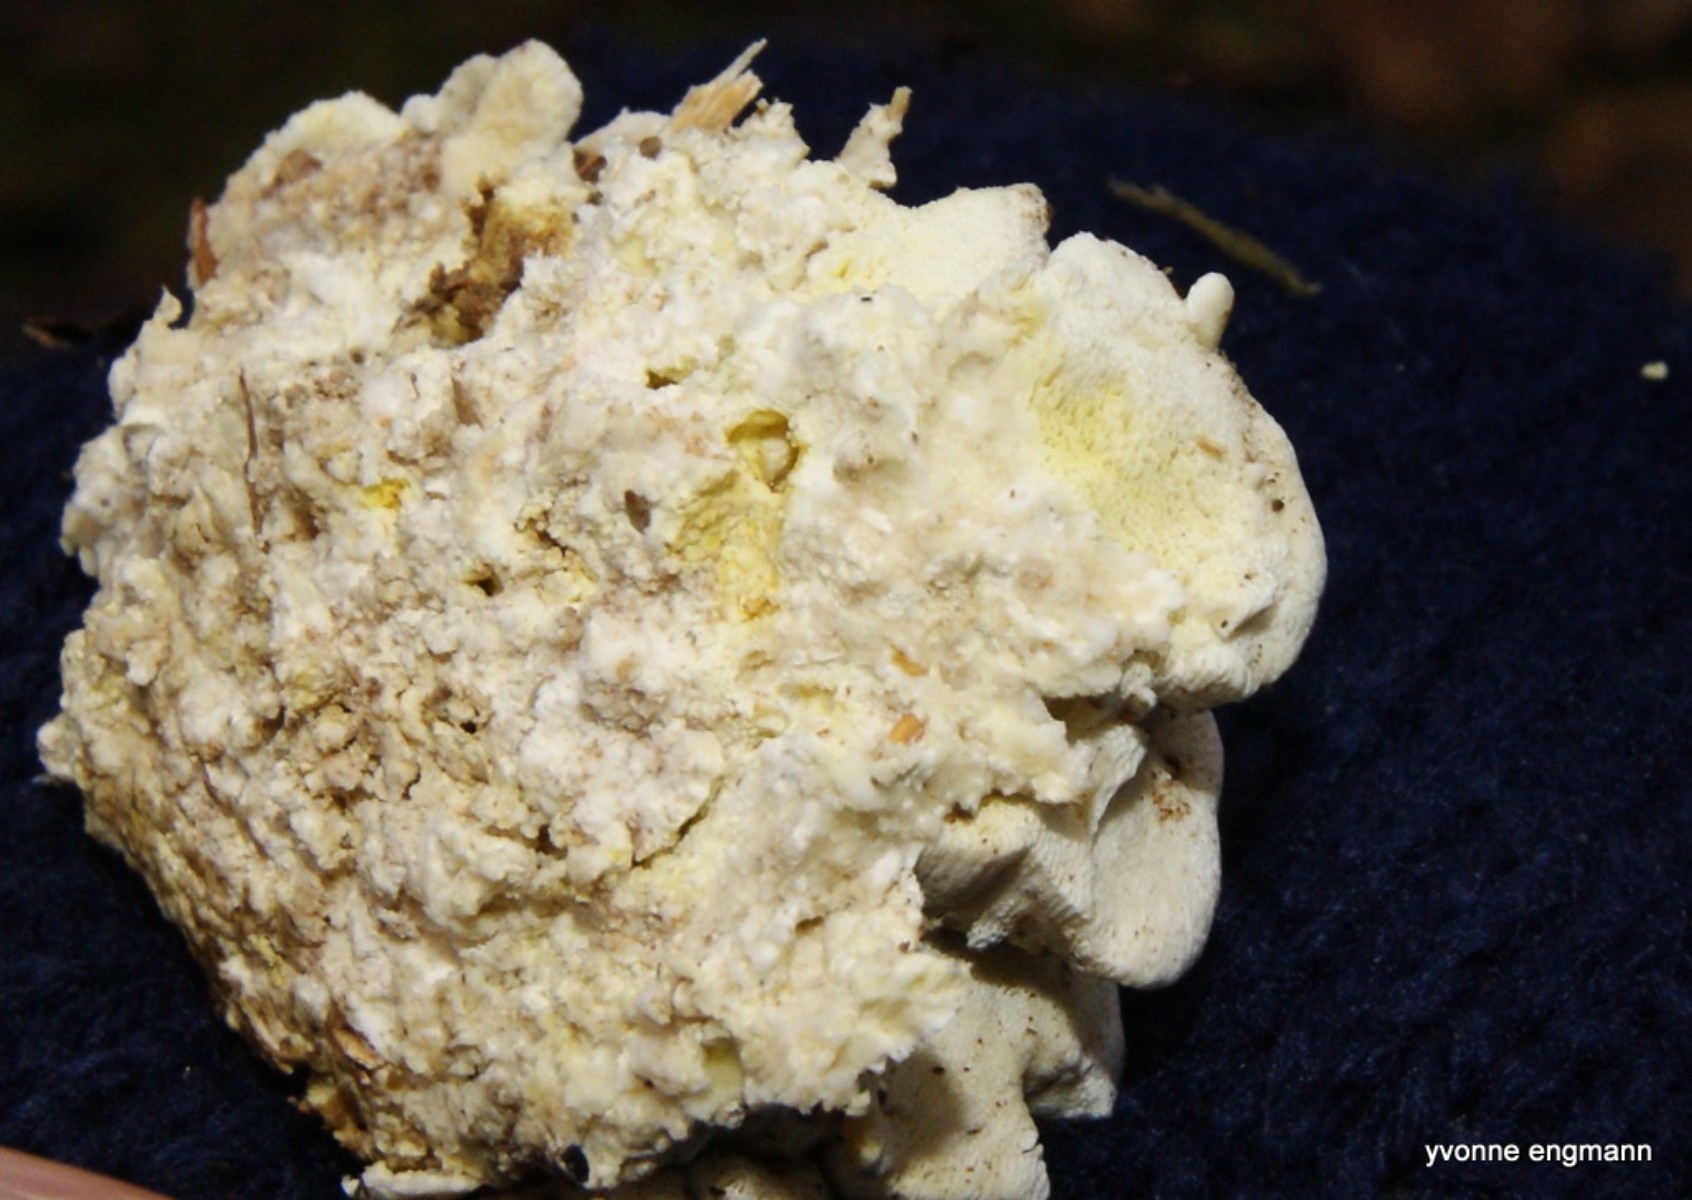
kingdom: Fungi
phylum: Basidiomycota
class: Agaricomycetes
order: Polyporales
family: Fomitopsidaceae
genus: Daedalea
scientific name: Daedalea xantha
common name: gul sejporesvamp
